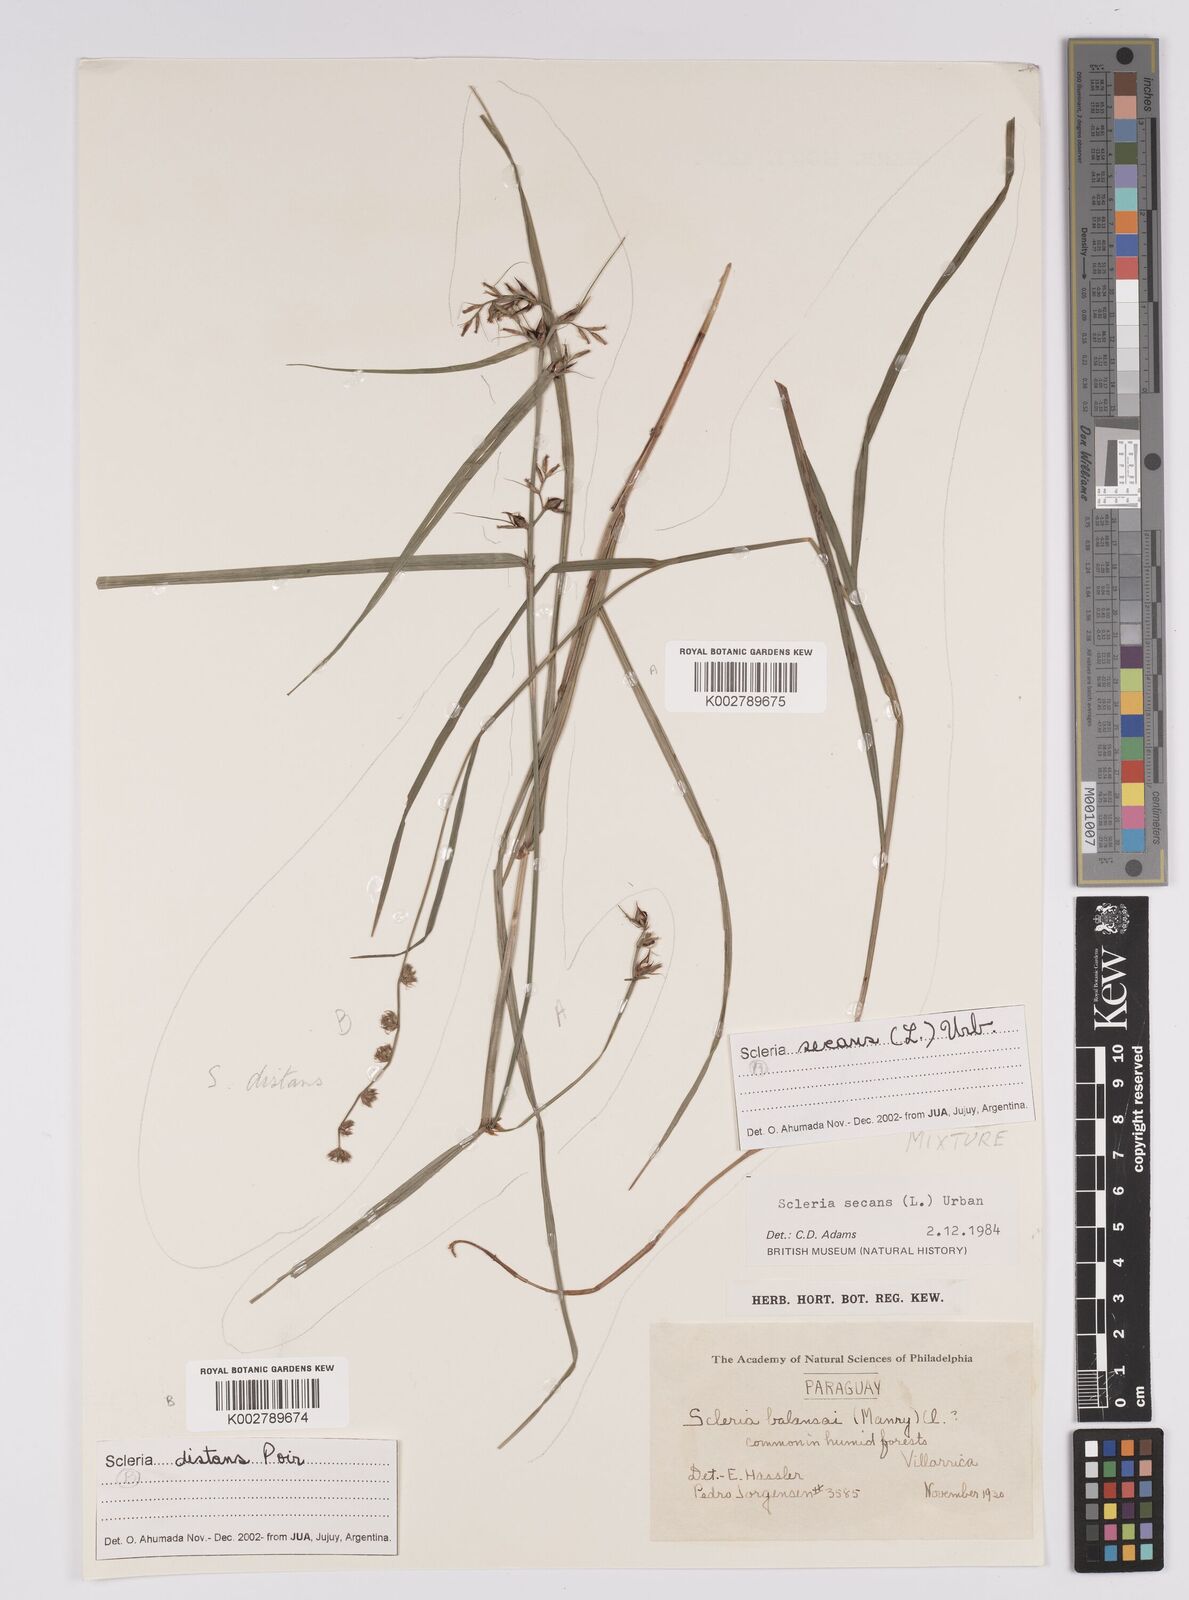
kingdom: Plantae
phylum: Tracheophyta
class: Liliopsida
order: Poales
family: Cyperaceae
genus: Scleria
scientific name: Scleria secans
